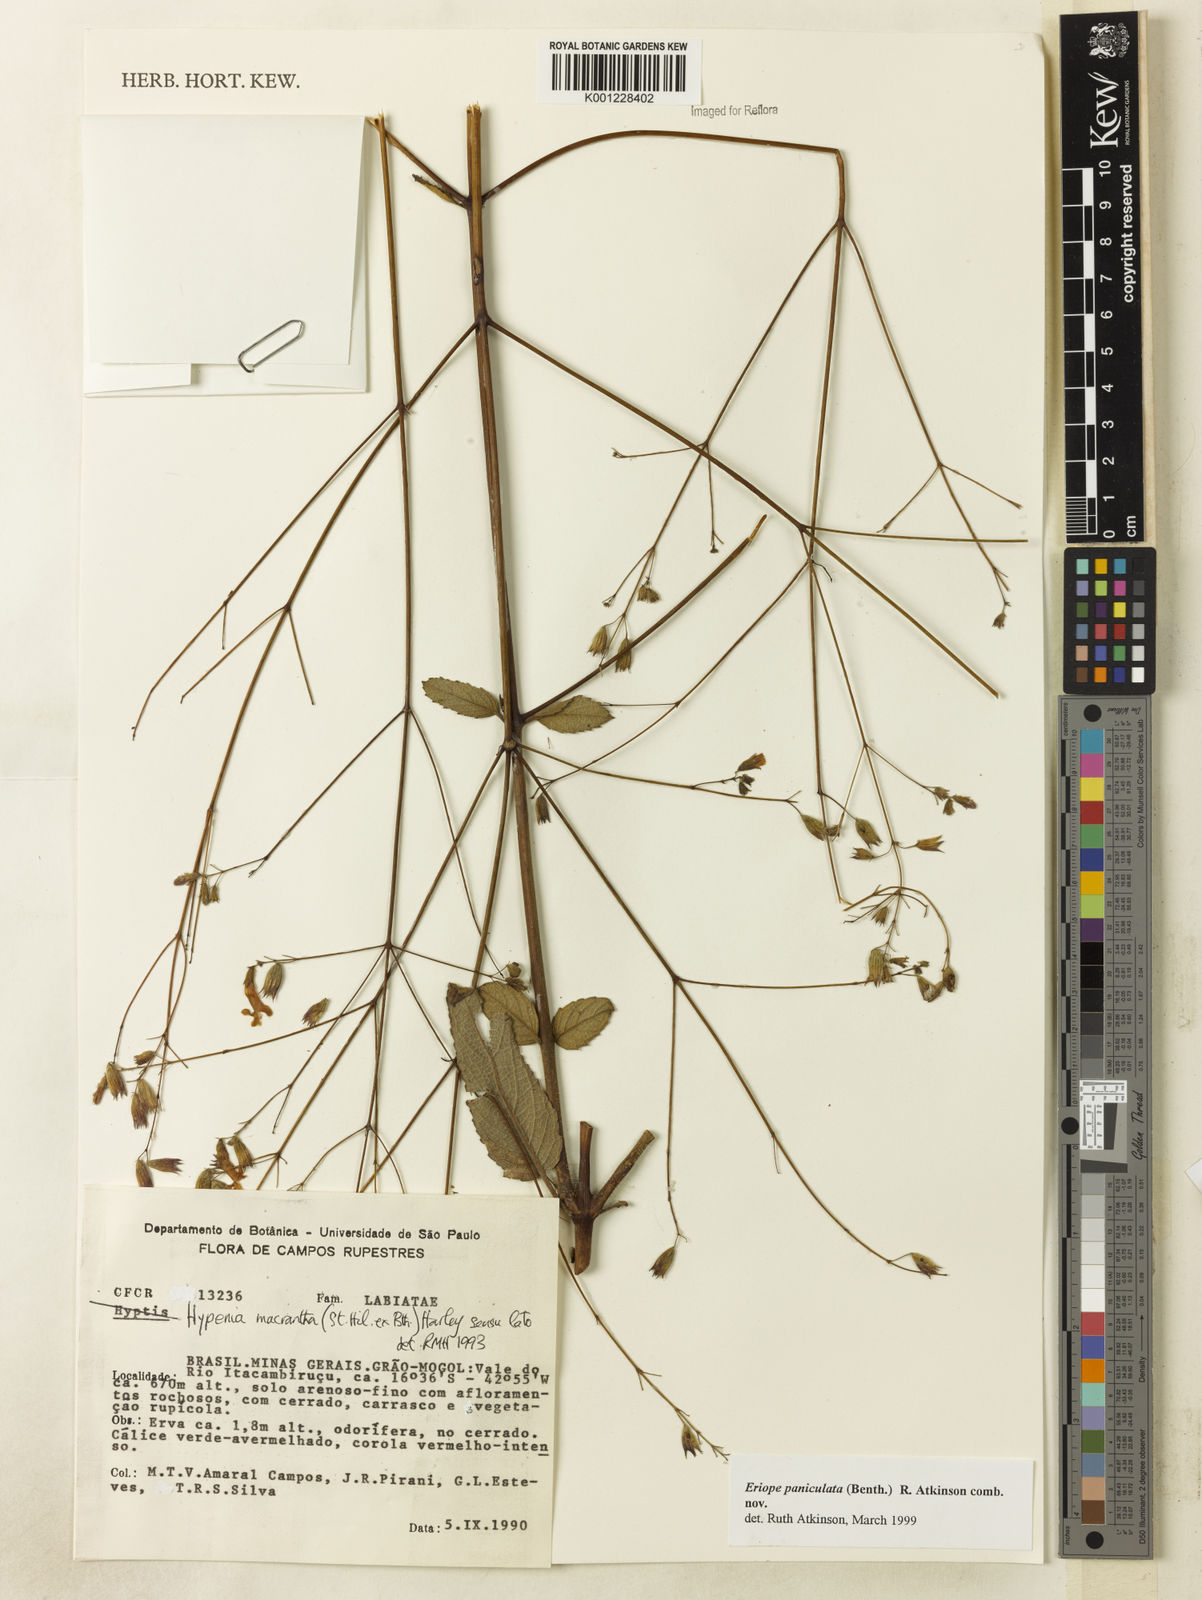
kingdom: Plantae
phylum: Tracheophyta
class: Magnoliopsida
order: Lamiales
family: Lamiaceae
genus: Hypenia
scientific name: Hypenia paniculata
